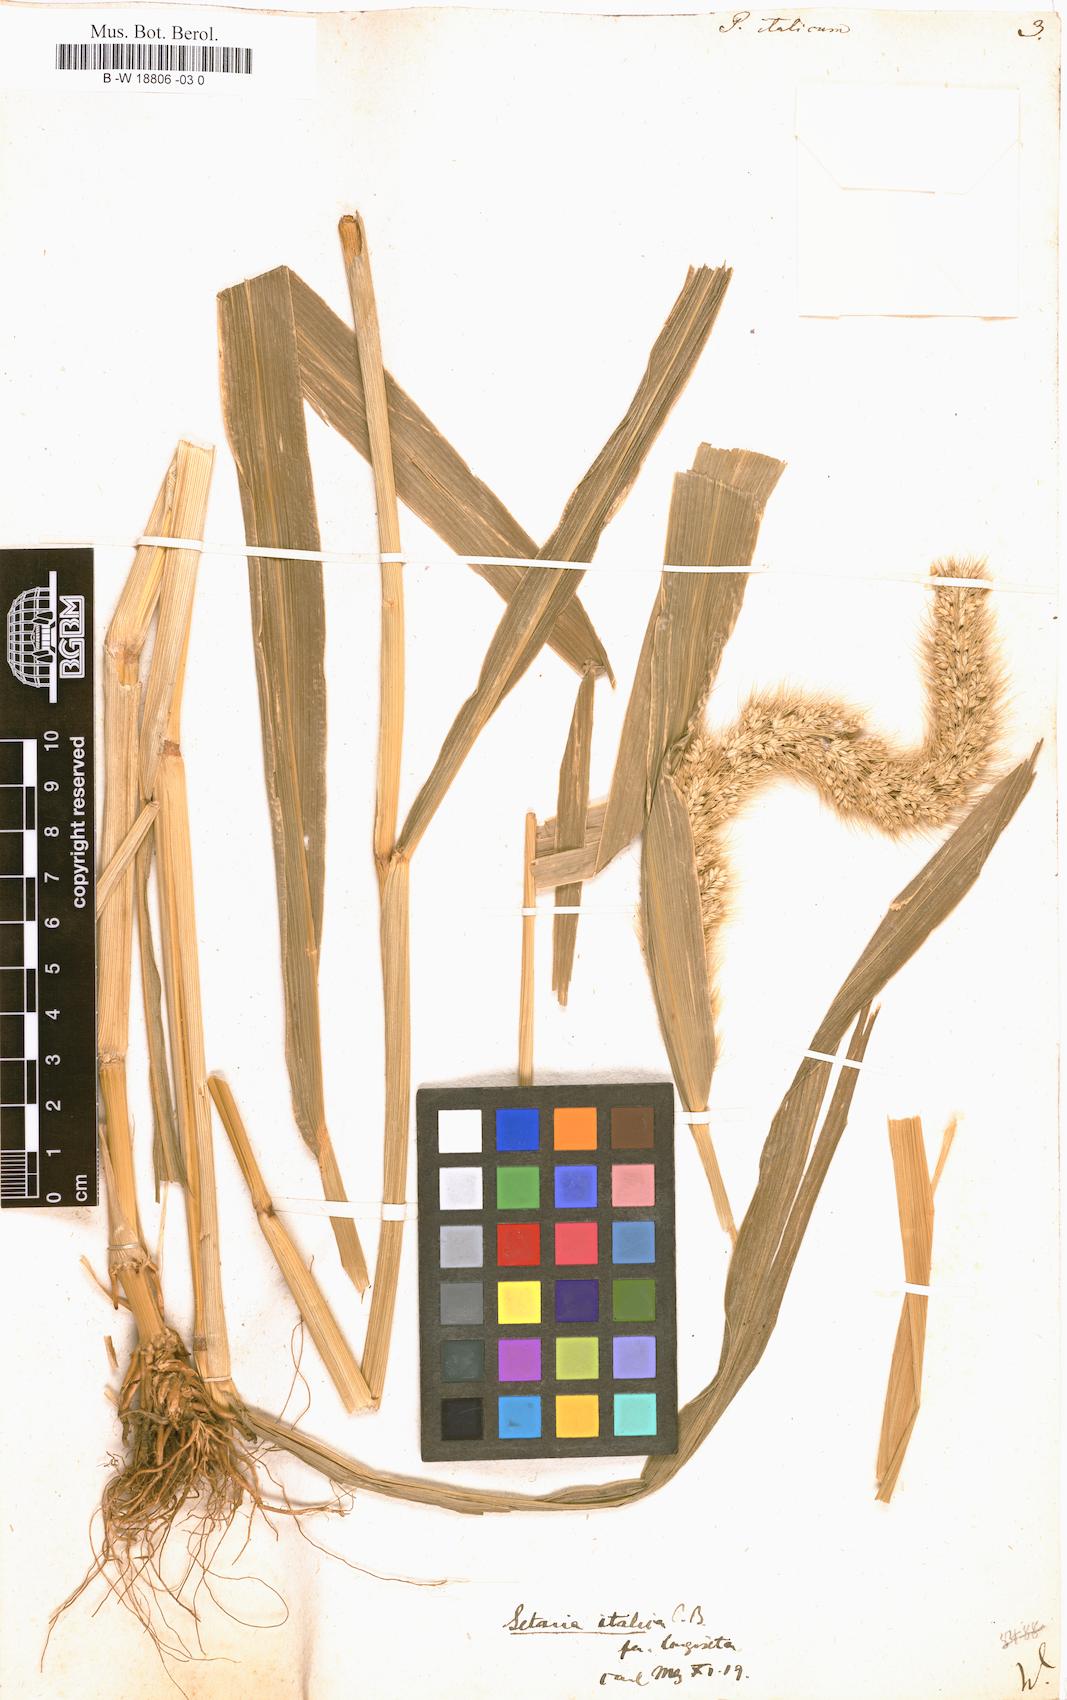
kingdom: Plantae
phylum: Tracheophyta
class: Liliopsida
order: Poales
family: Poaceae
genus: Setaria
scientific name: Setaria italica
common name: Foxtail bristle-grass
